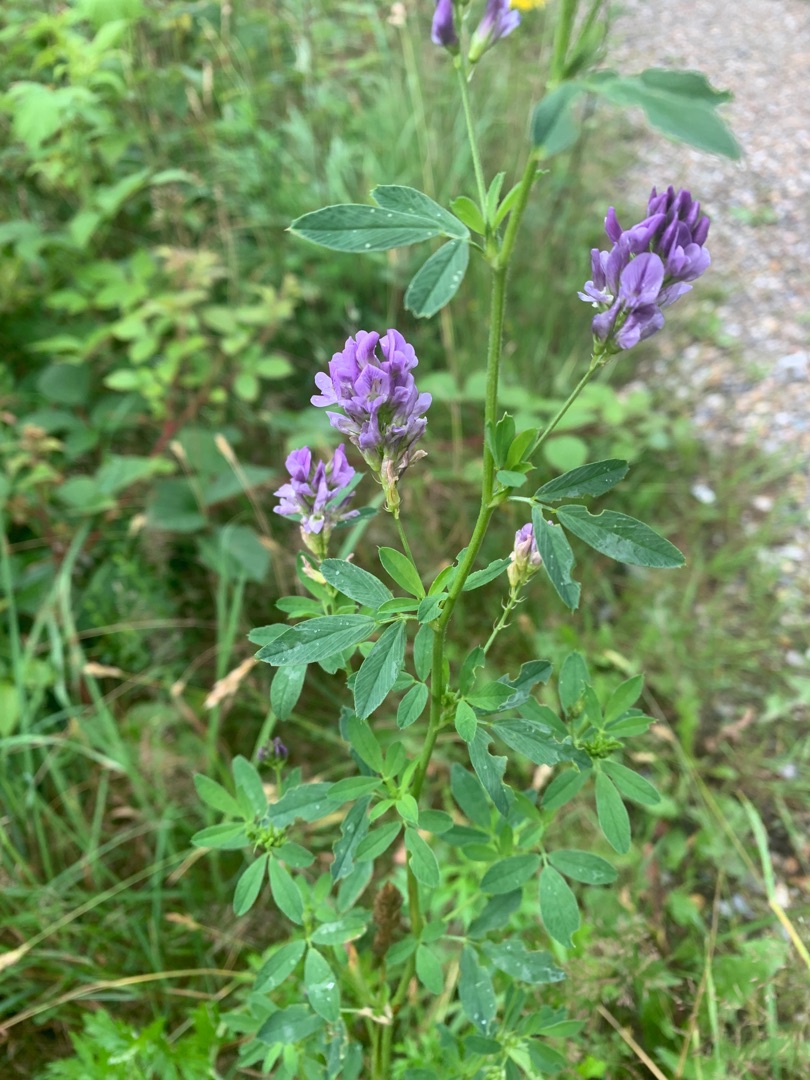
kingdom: Plantae
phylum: Tracheophyta
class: Magnoliopsida
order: Fabales
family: Fabaceae
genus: Medicago
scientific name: Medicago sativa
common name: Lucerne
